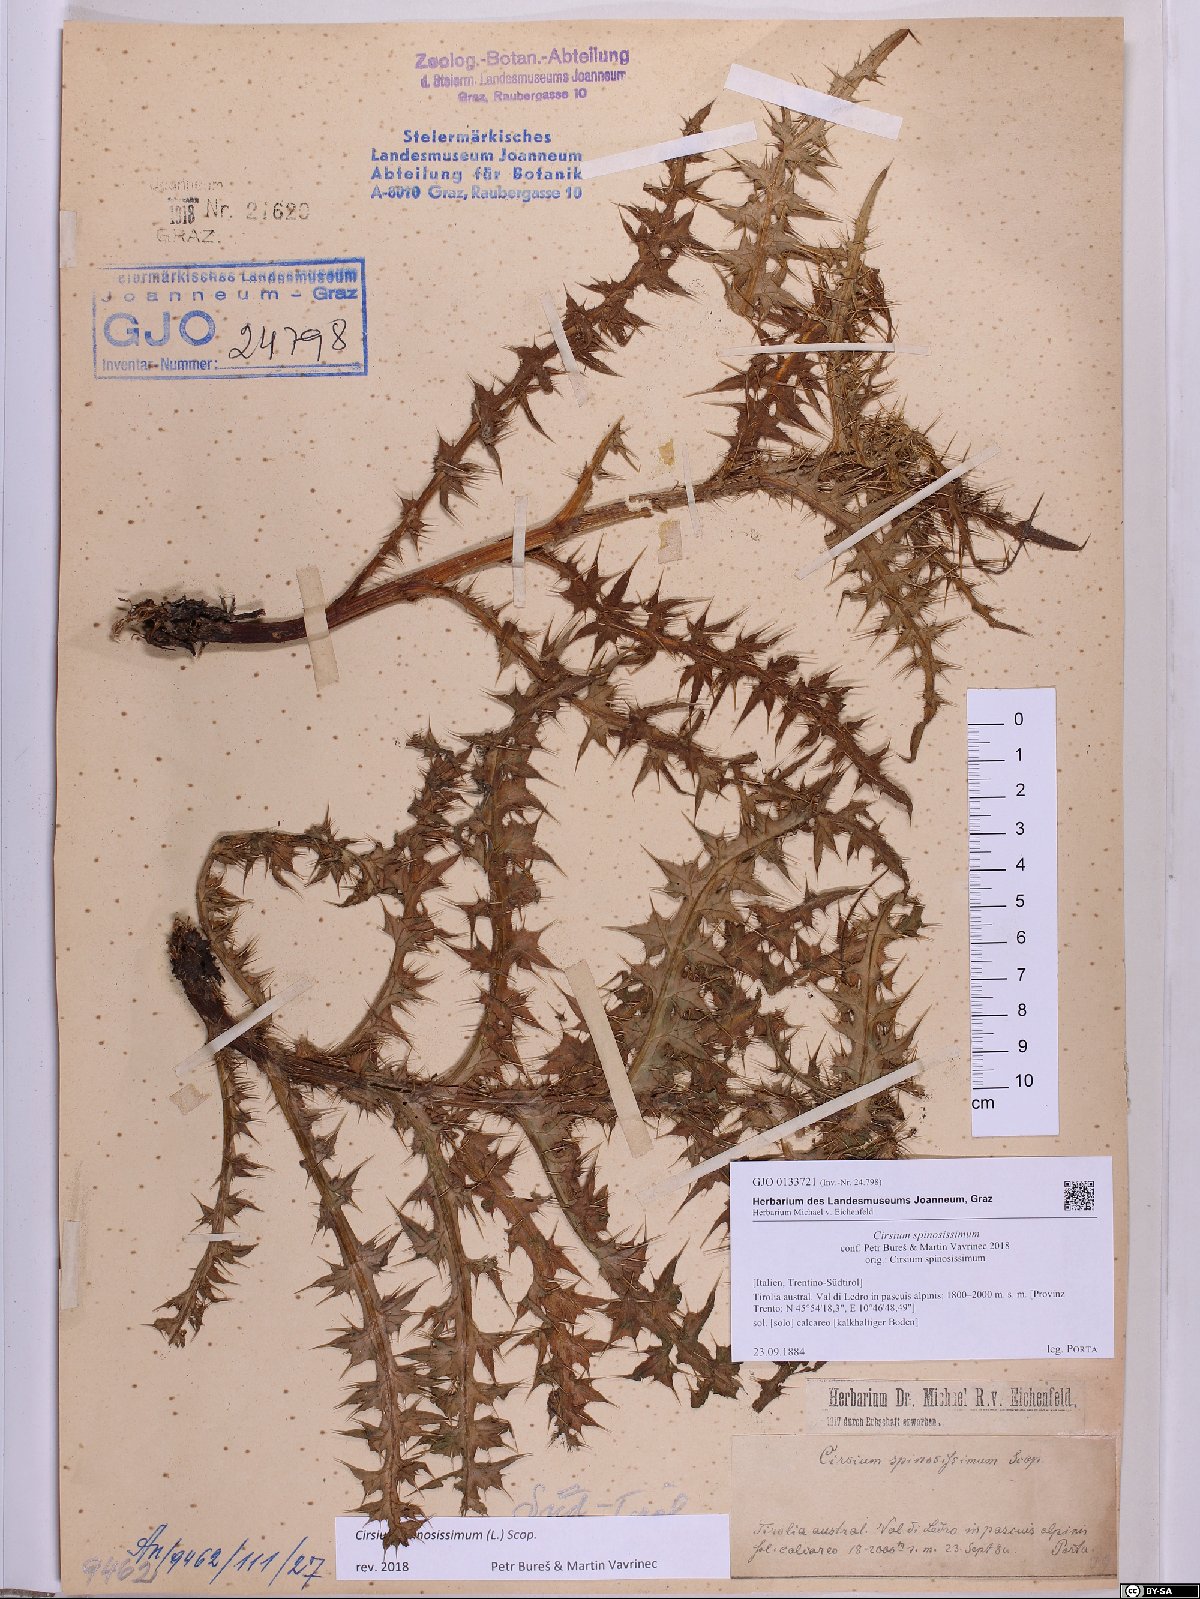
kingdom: Plantae
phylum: Tracheophyta
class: Magnoliopsida
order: Asterales
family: Asteraceae
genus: Cirsium
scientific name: Cirsium spinosissimum
